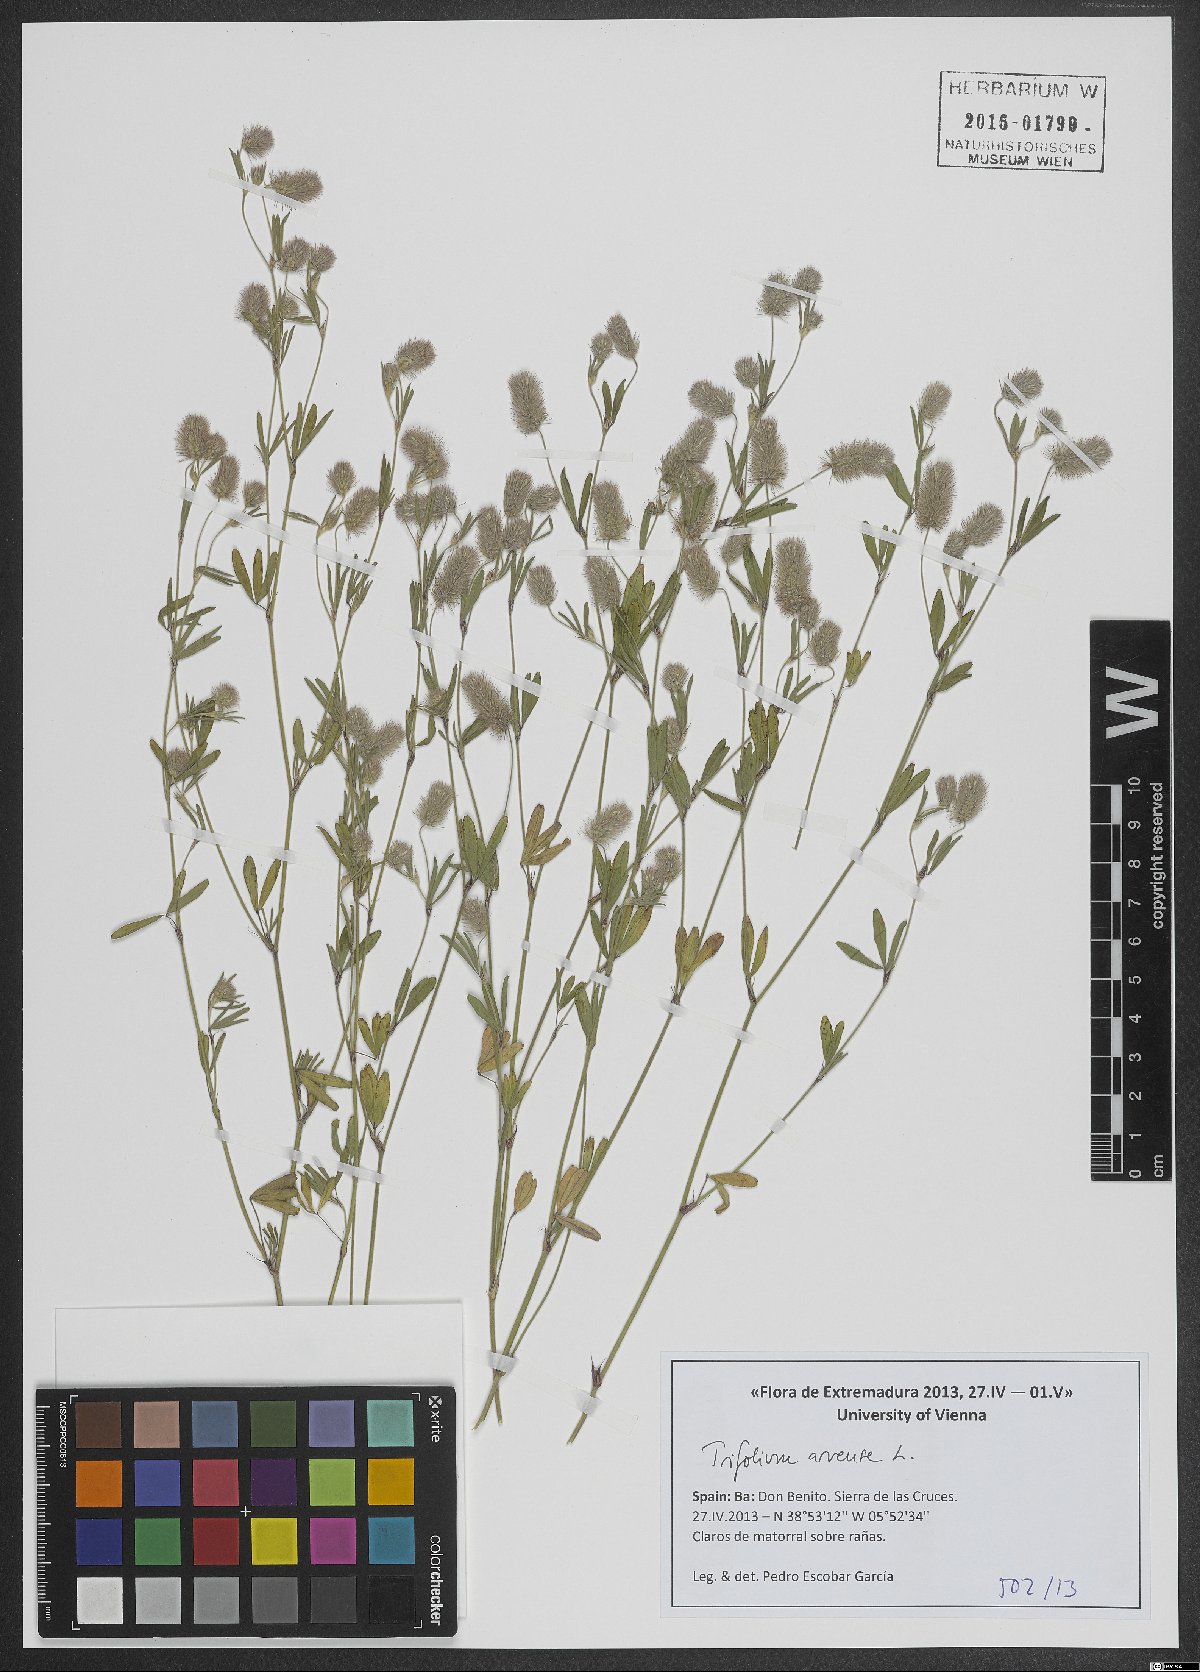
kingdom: Plantae
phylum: Tracheophyta
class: Magnoliopsida
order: Fabales
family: Fabaceae
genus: Trifolium
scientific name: Trifolium arvense
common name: Hare's-foot clover
